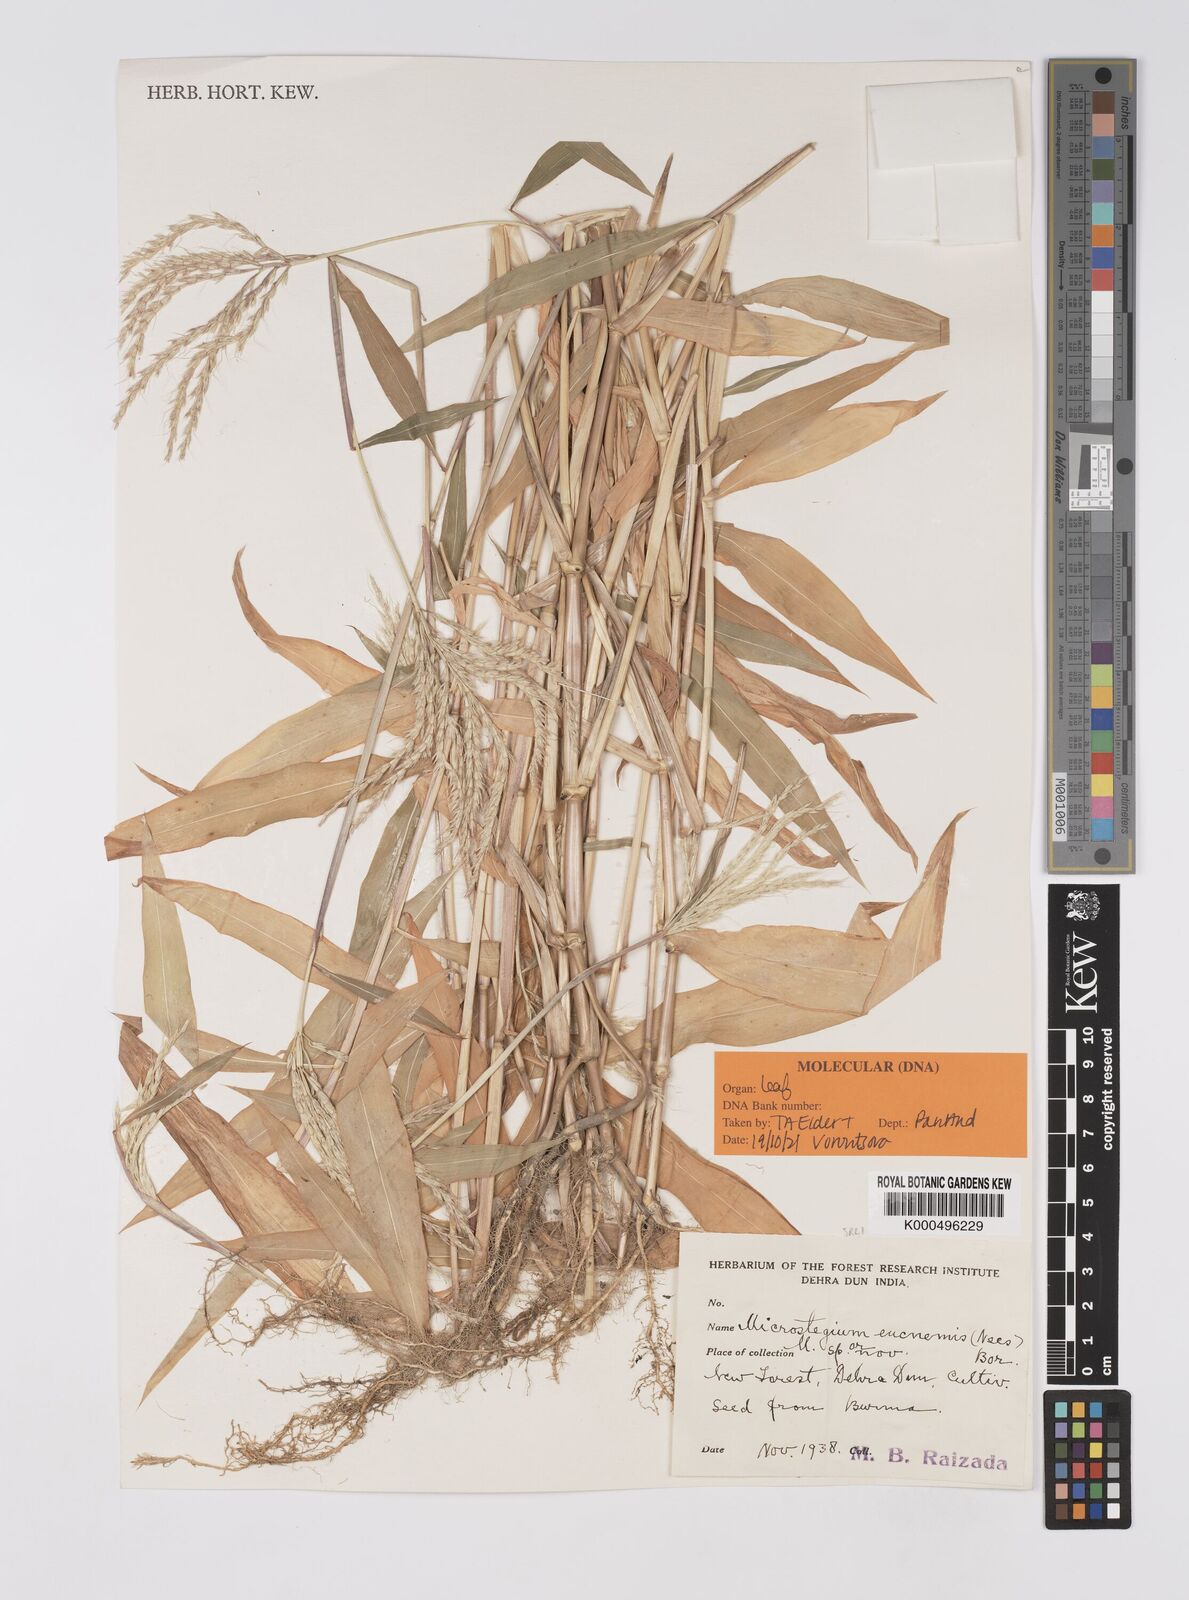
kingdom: Plantae
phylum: Tracheophyta
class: Liliopsida
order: Poales
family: Poaceae
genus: Microstegium
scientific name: Microstegium eucnemis
